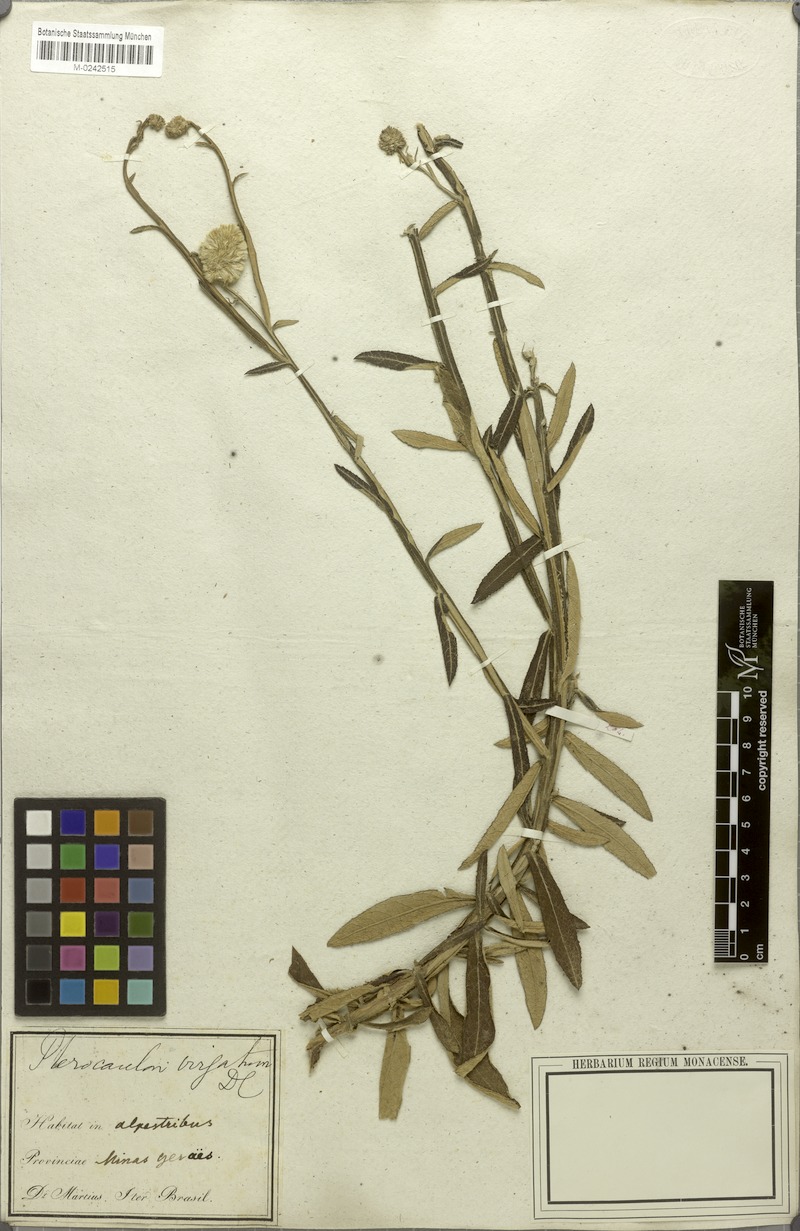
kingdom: Plantae
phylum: Tracheophyta
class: Magnoliopsida
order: Asterales
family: Asteraceae
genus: Pterocaulon
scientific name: Pterocaulon virgatum
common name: Wand blackroot
